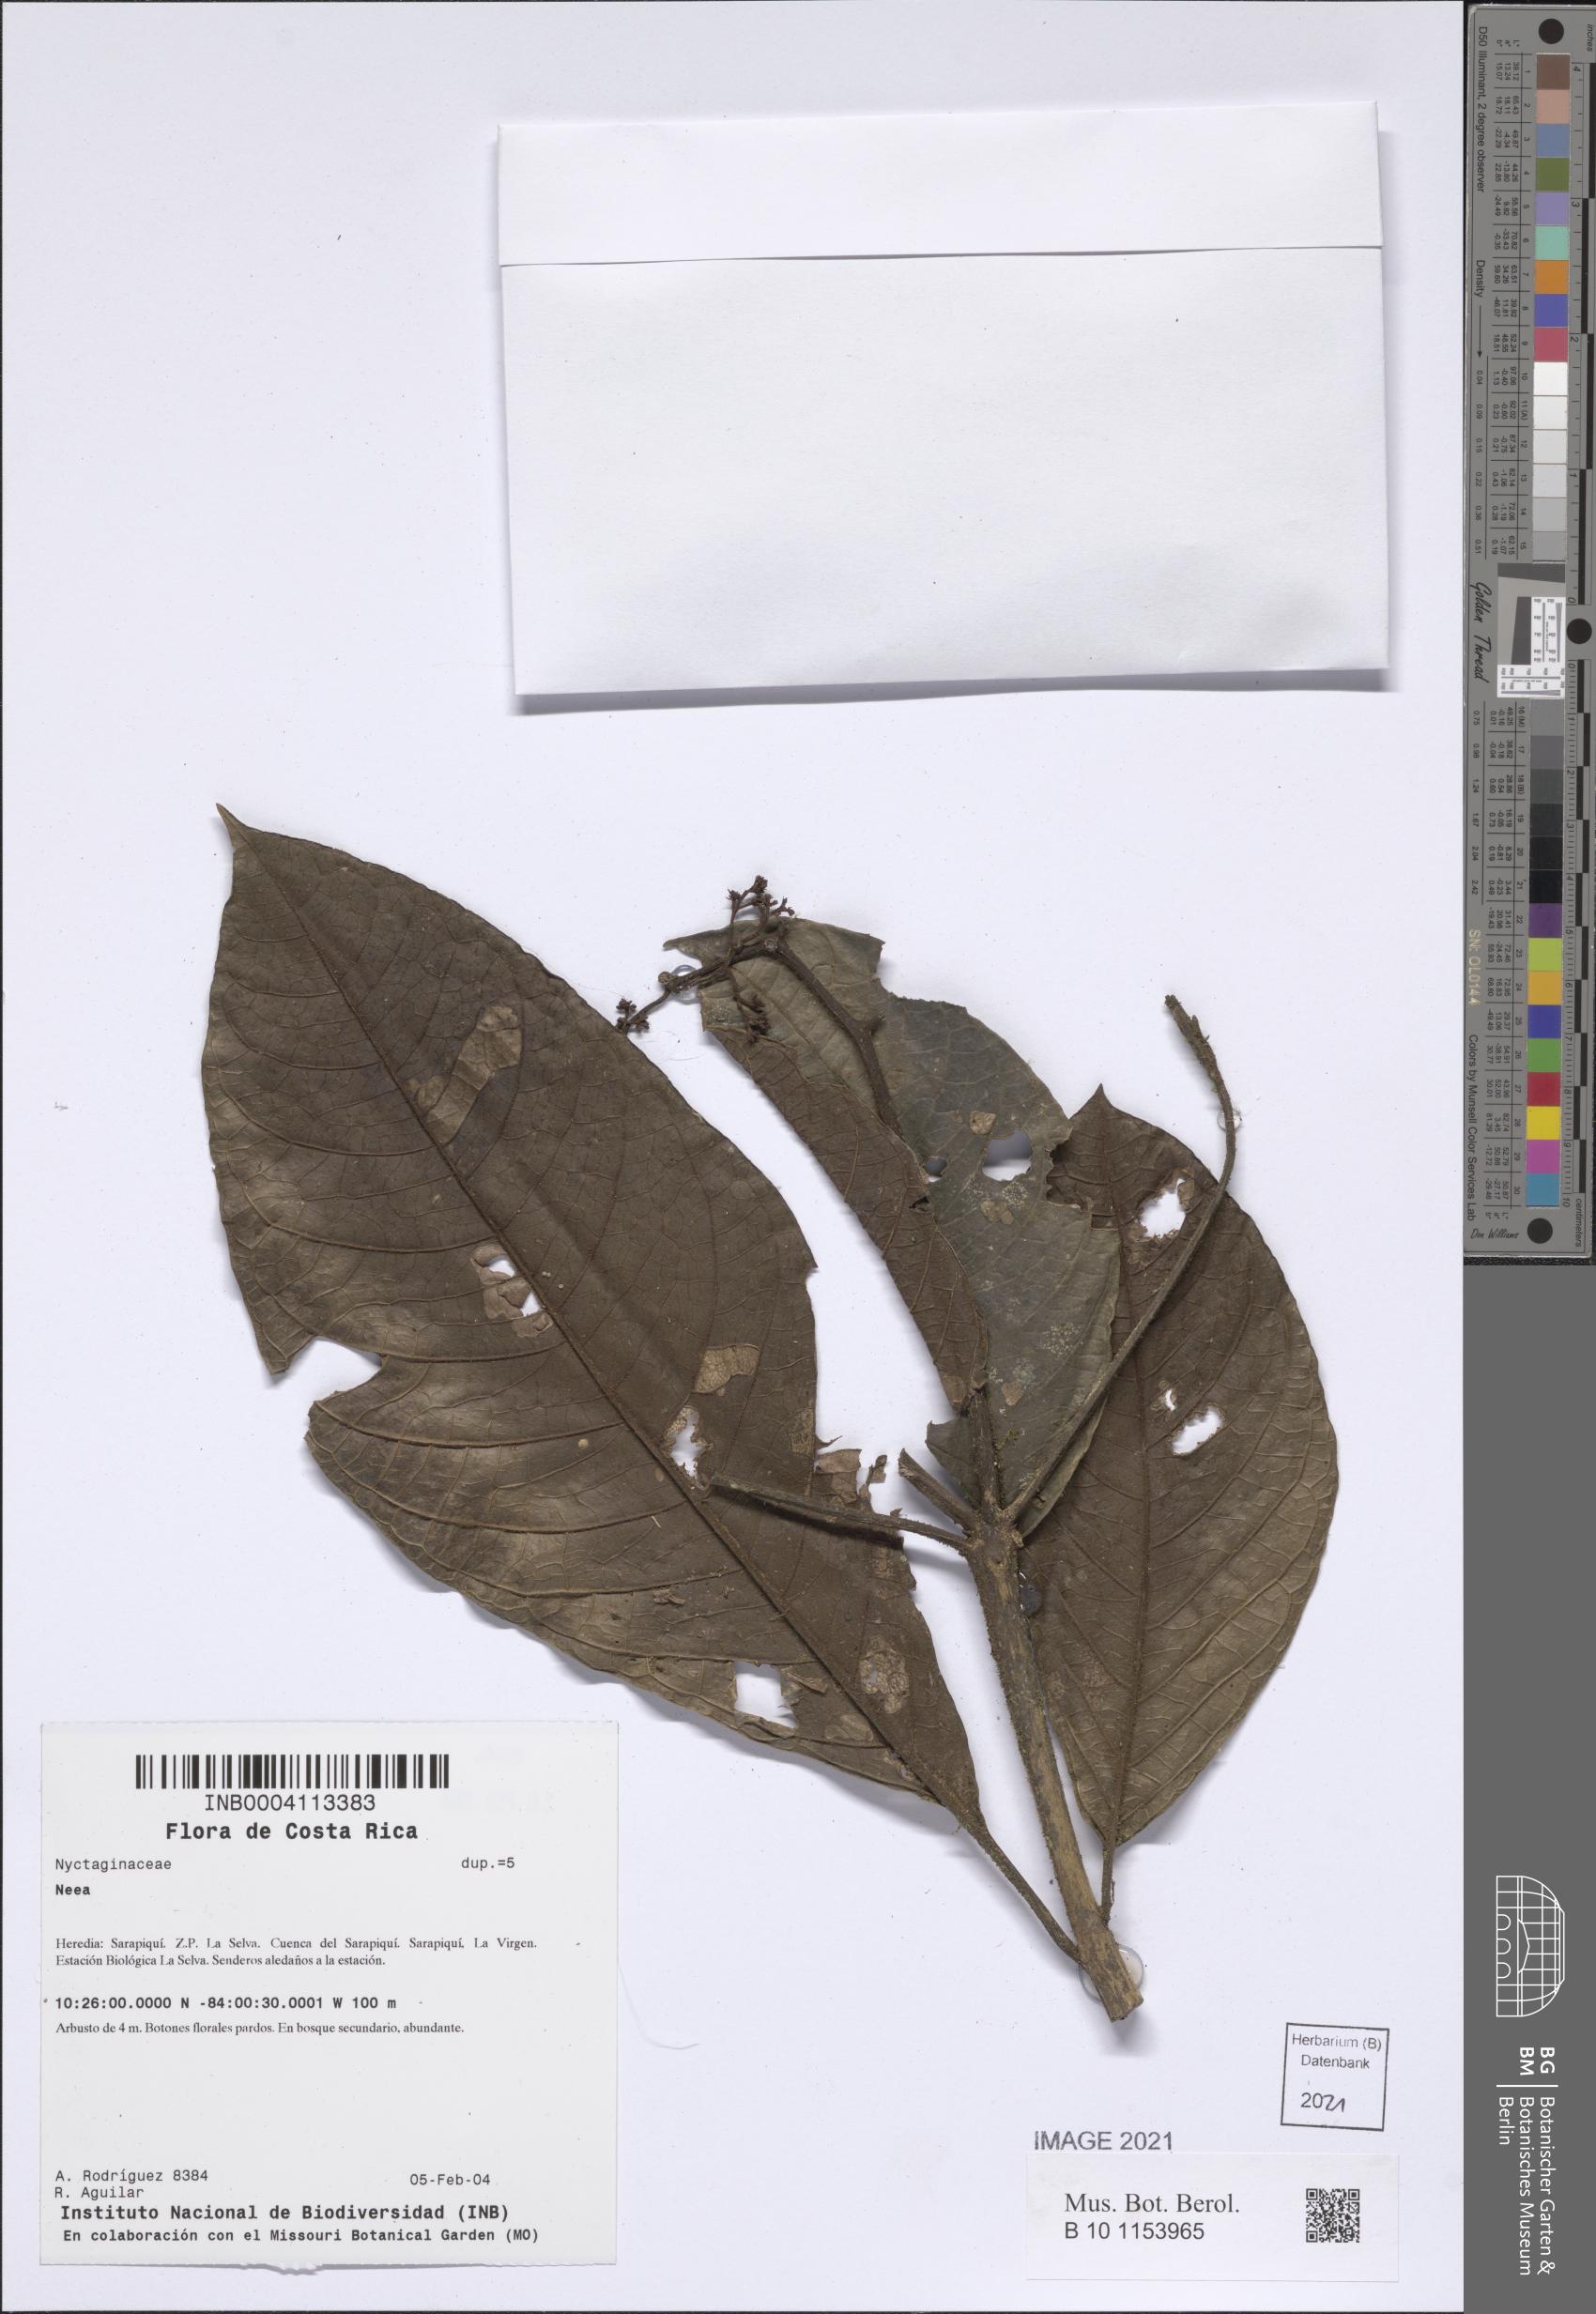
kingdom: Plantae
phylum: Tracheophyta
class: Magnoliopsida
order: Caryophyllales
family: Nyctaginaceae
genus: Neea
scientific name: Neea
